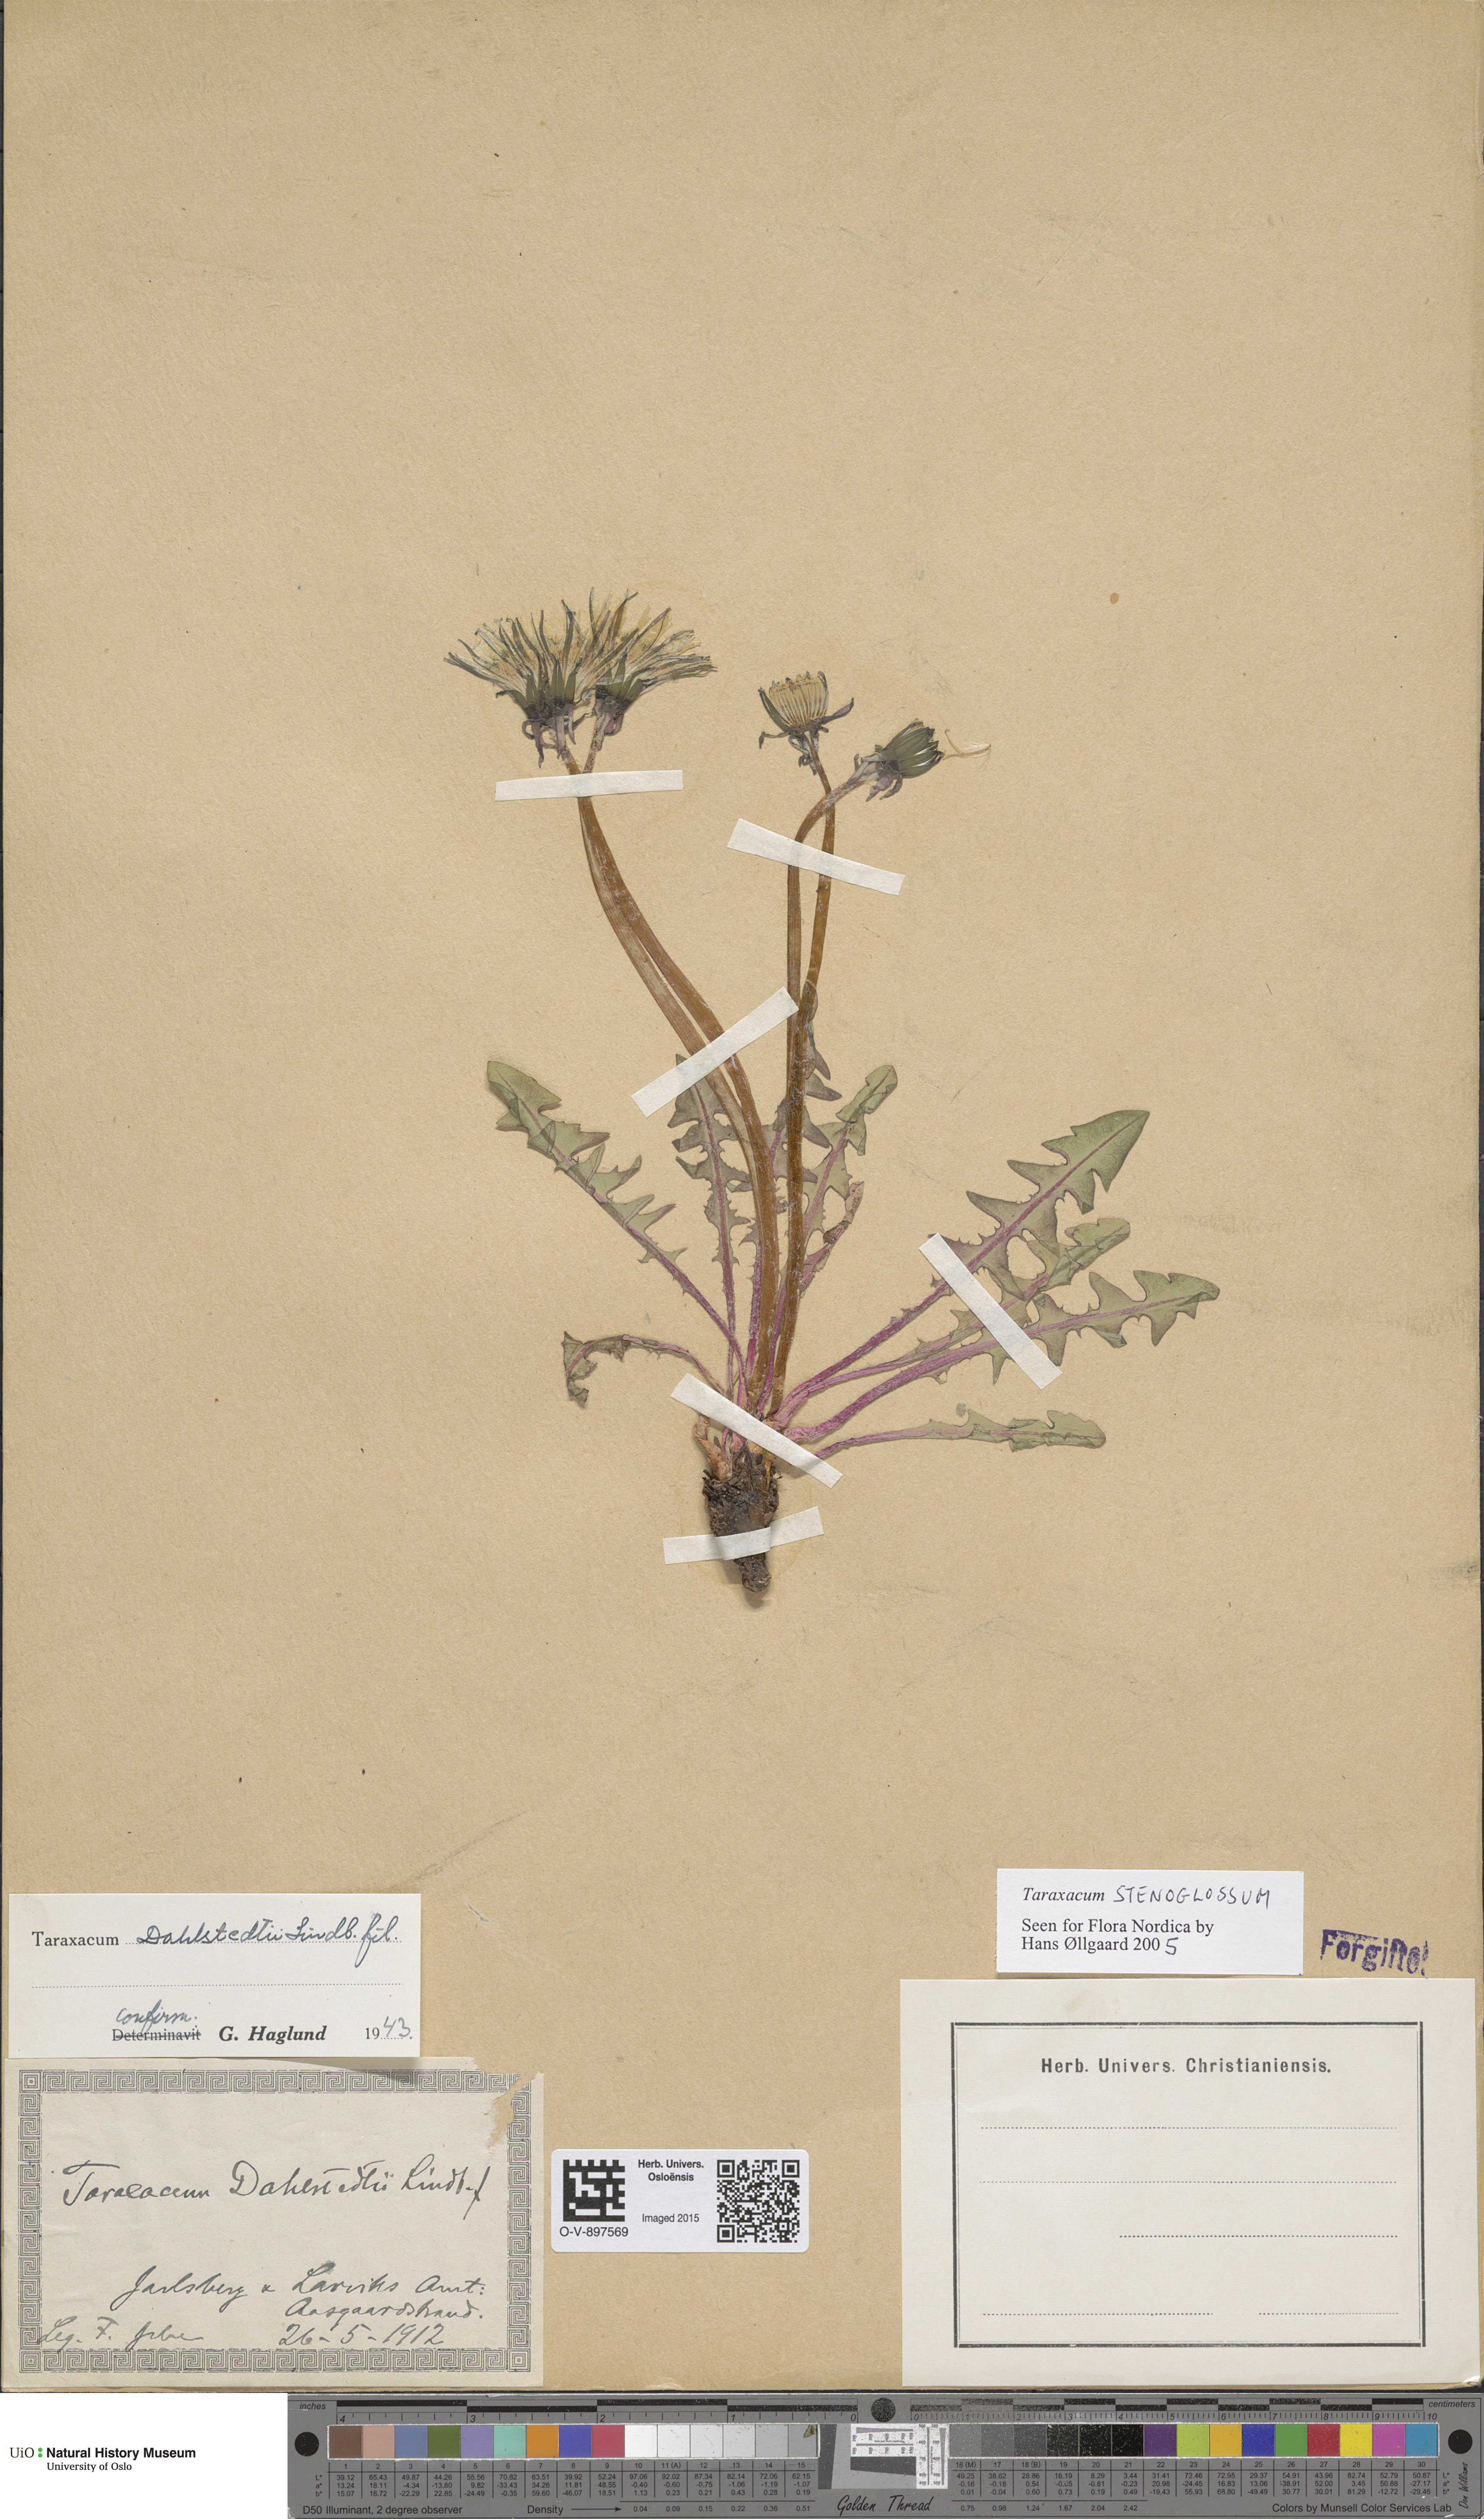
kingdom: Plantae
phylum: Tracheophyta
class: Magnoliopsida
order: Asterales
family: Asteraceae
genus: Taraxacum
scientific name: Taraxacum stenoglossum
